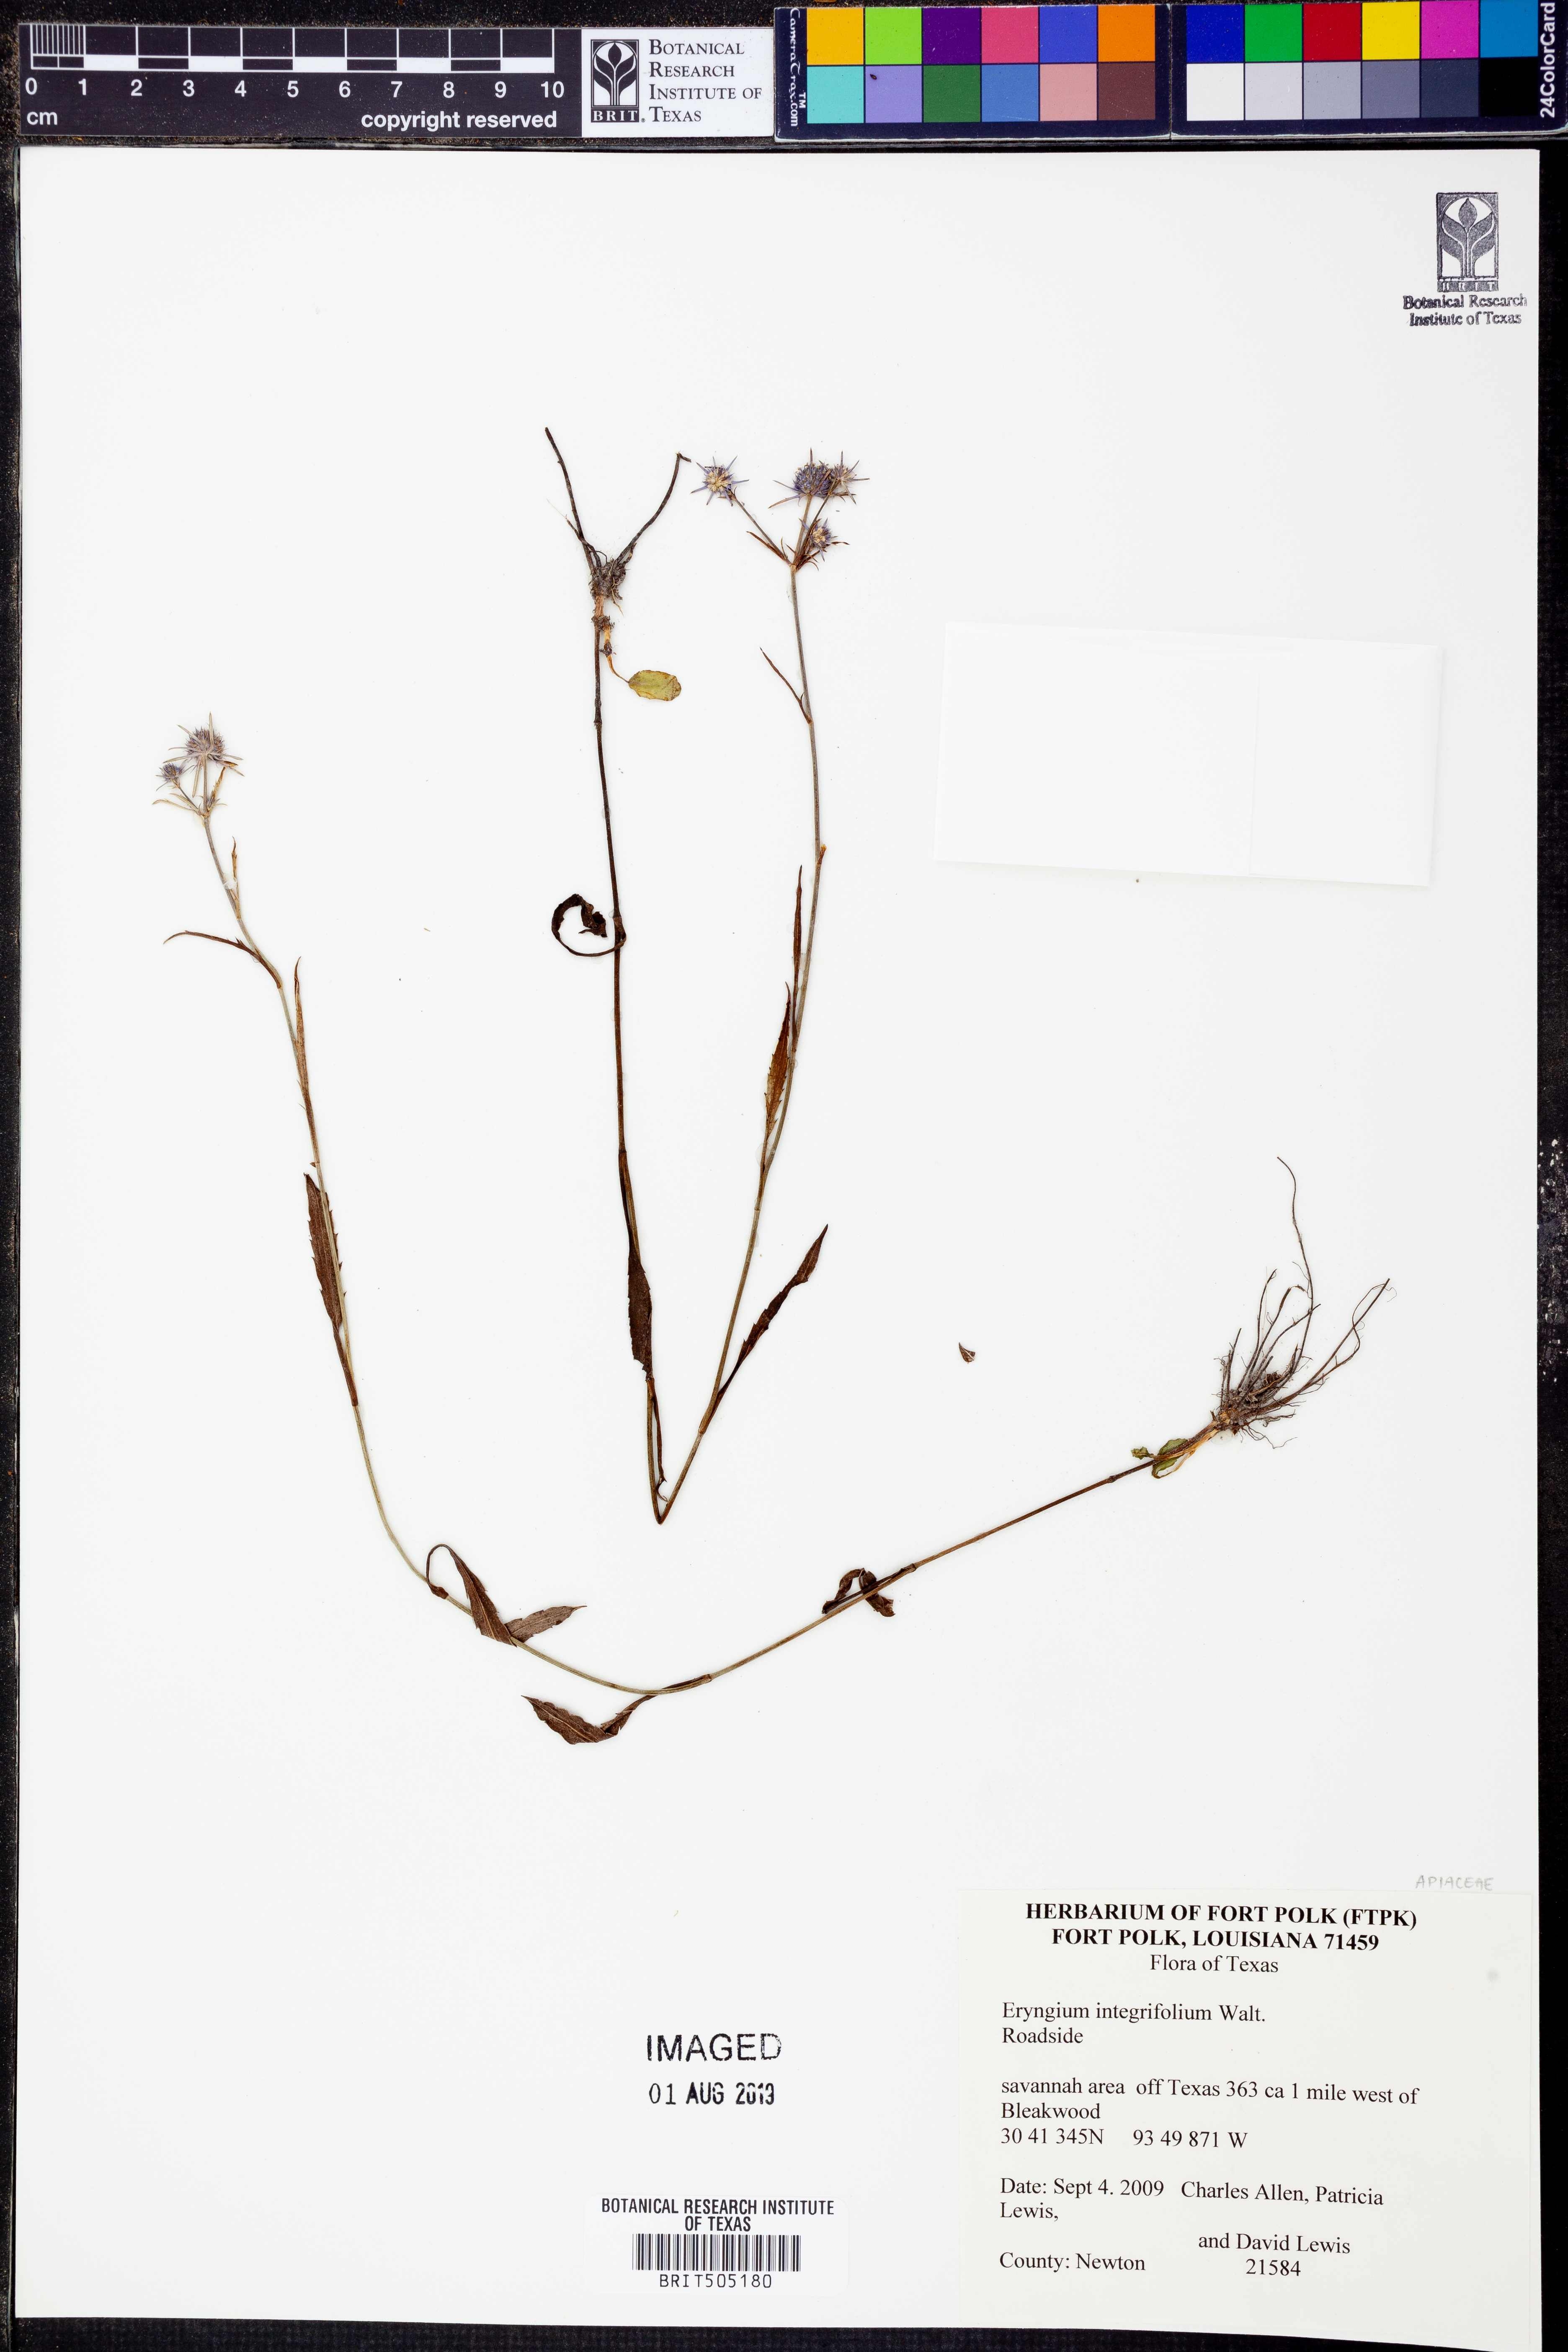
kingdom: Plantae
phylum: Tracheophyta
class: Magnoliopsida
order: Apiales
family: Apiaceae
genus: Eryngium
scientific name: Eryngium integrifolium
